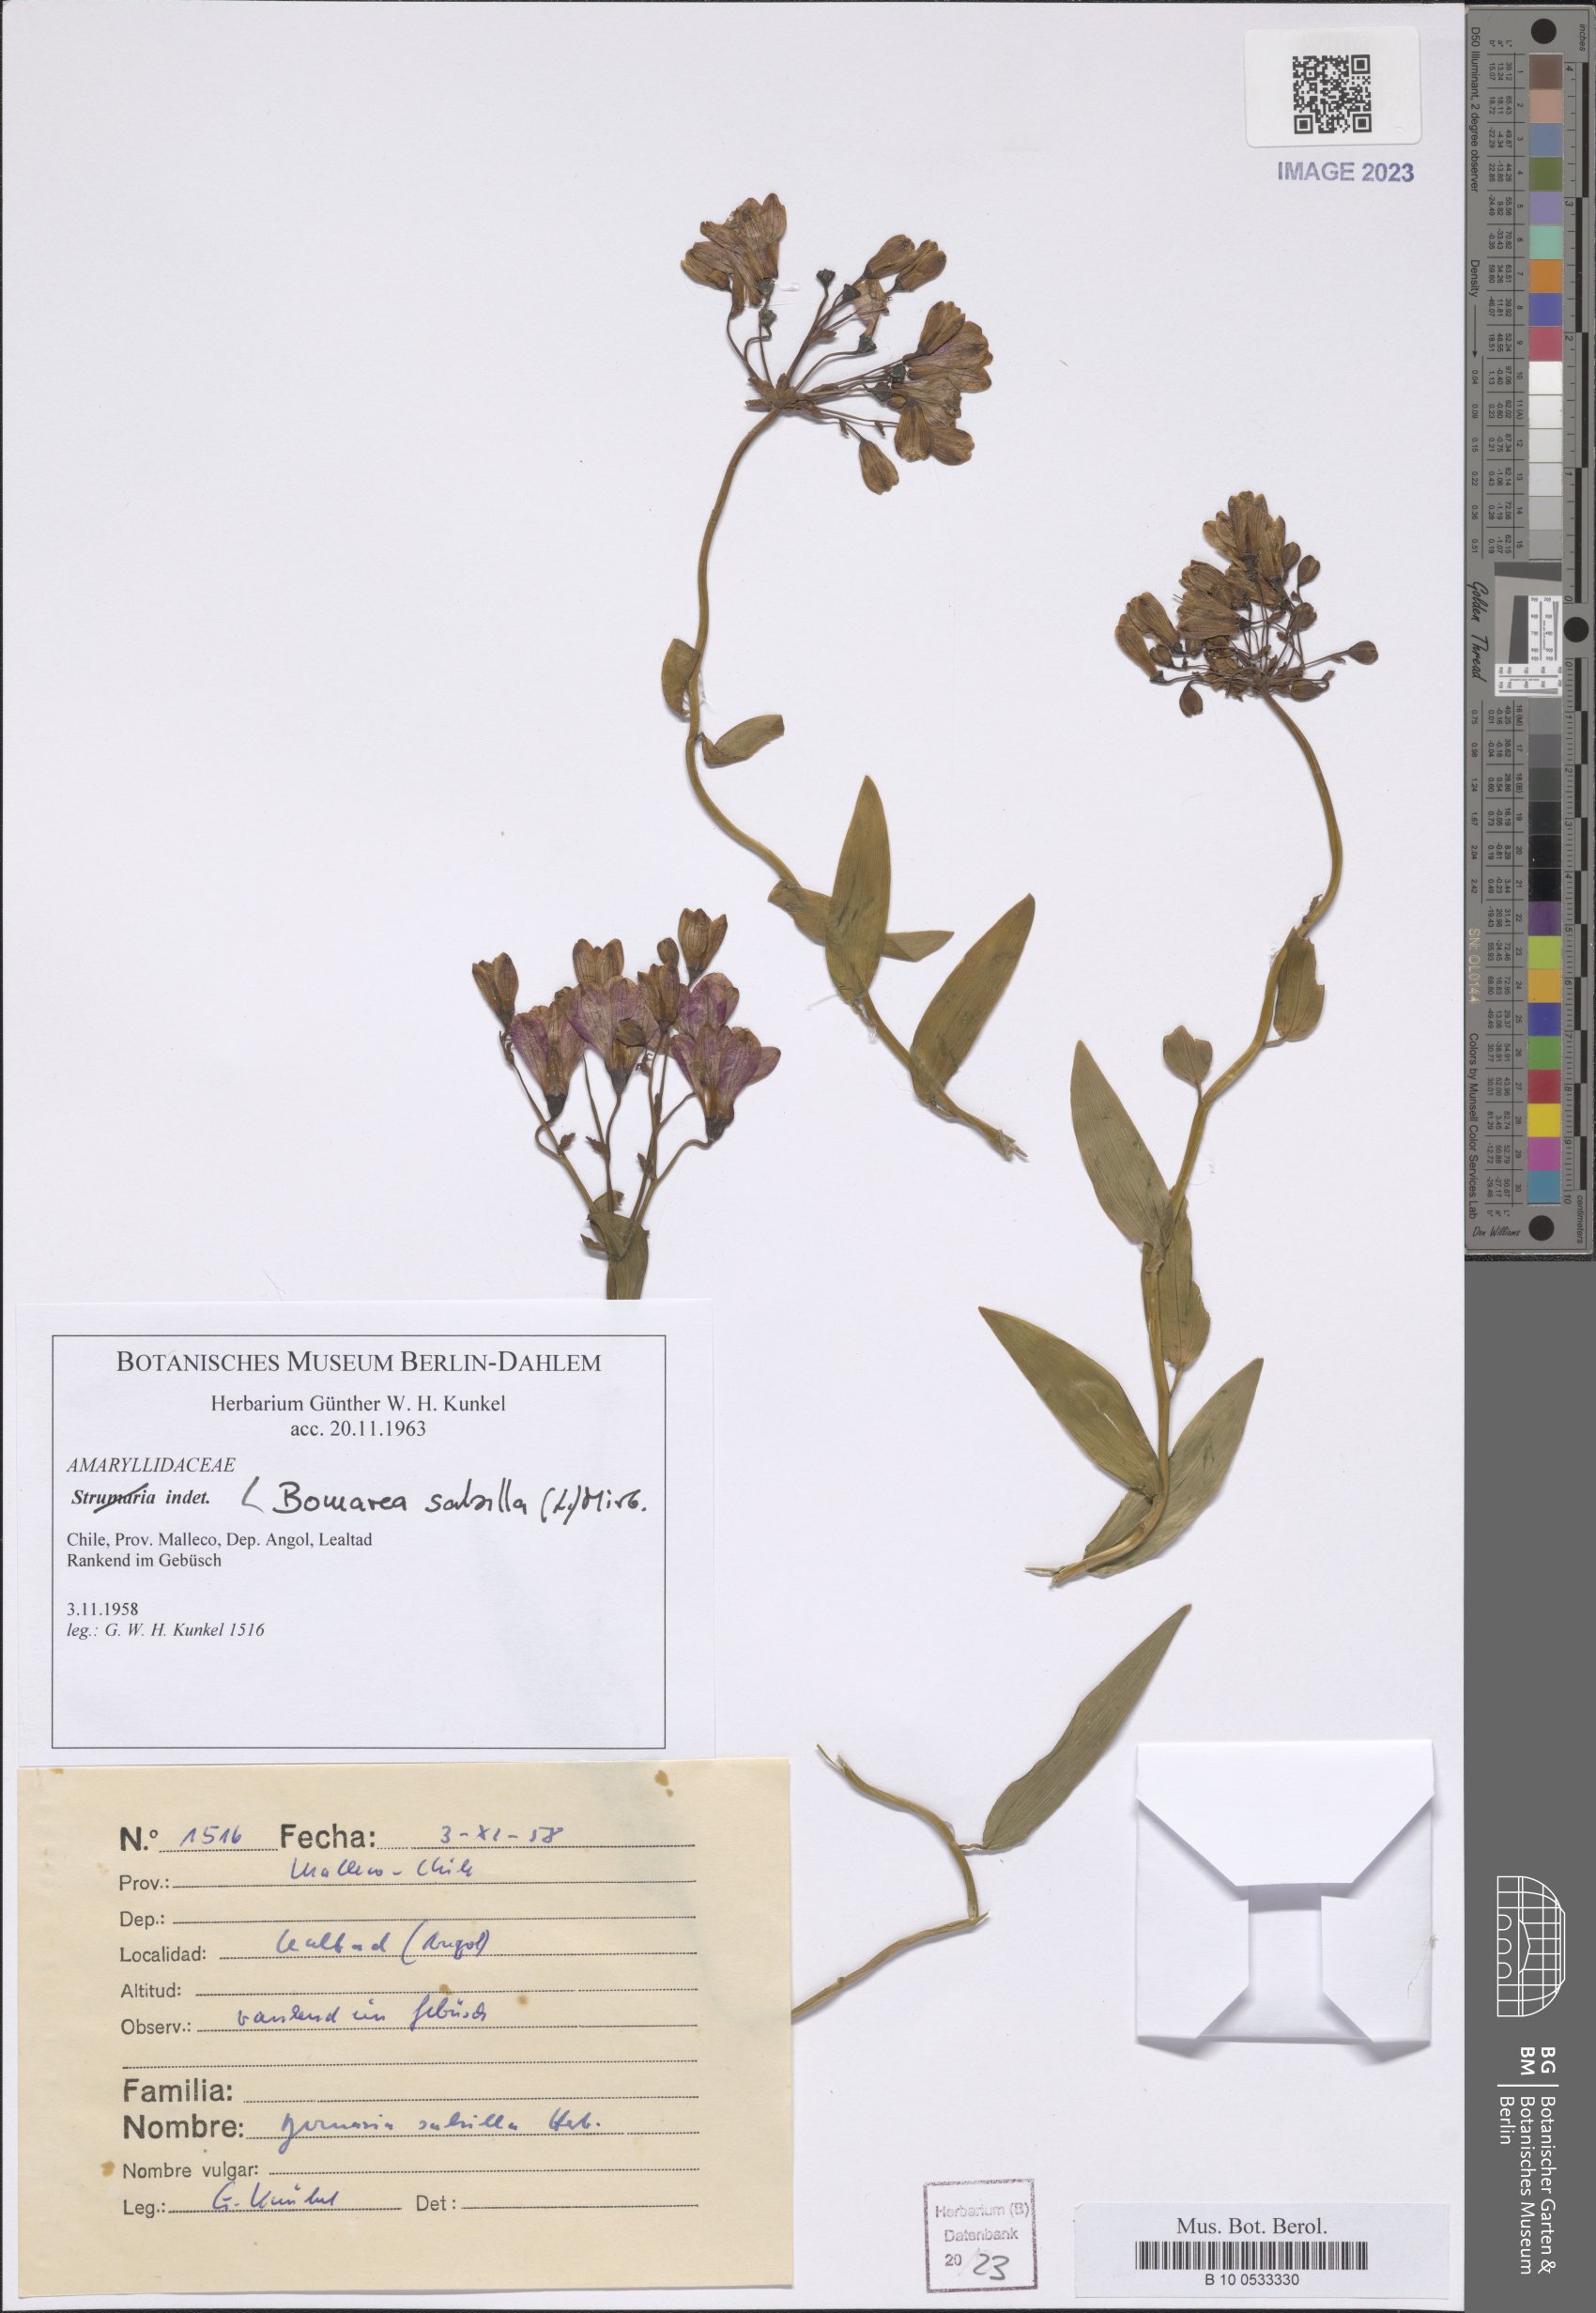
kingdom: Plantae
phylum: Tracheophyta
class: Liliopsida
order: Liliales
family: Alstroemeriaceae
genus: Bomarea
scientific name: Bomarea salsilla
